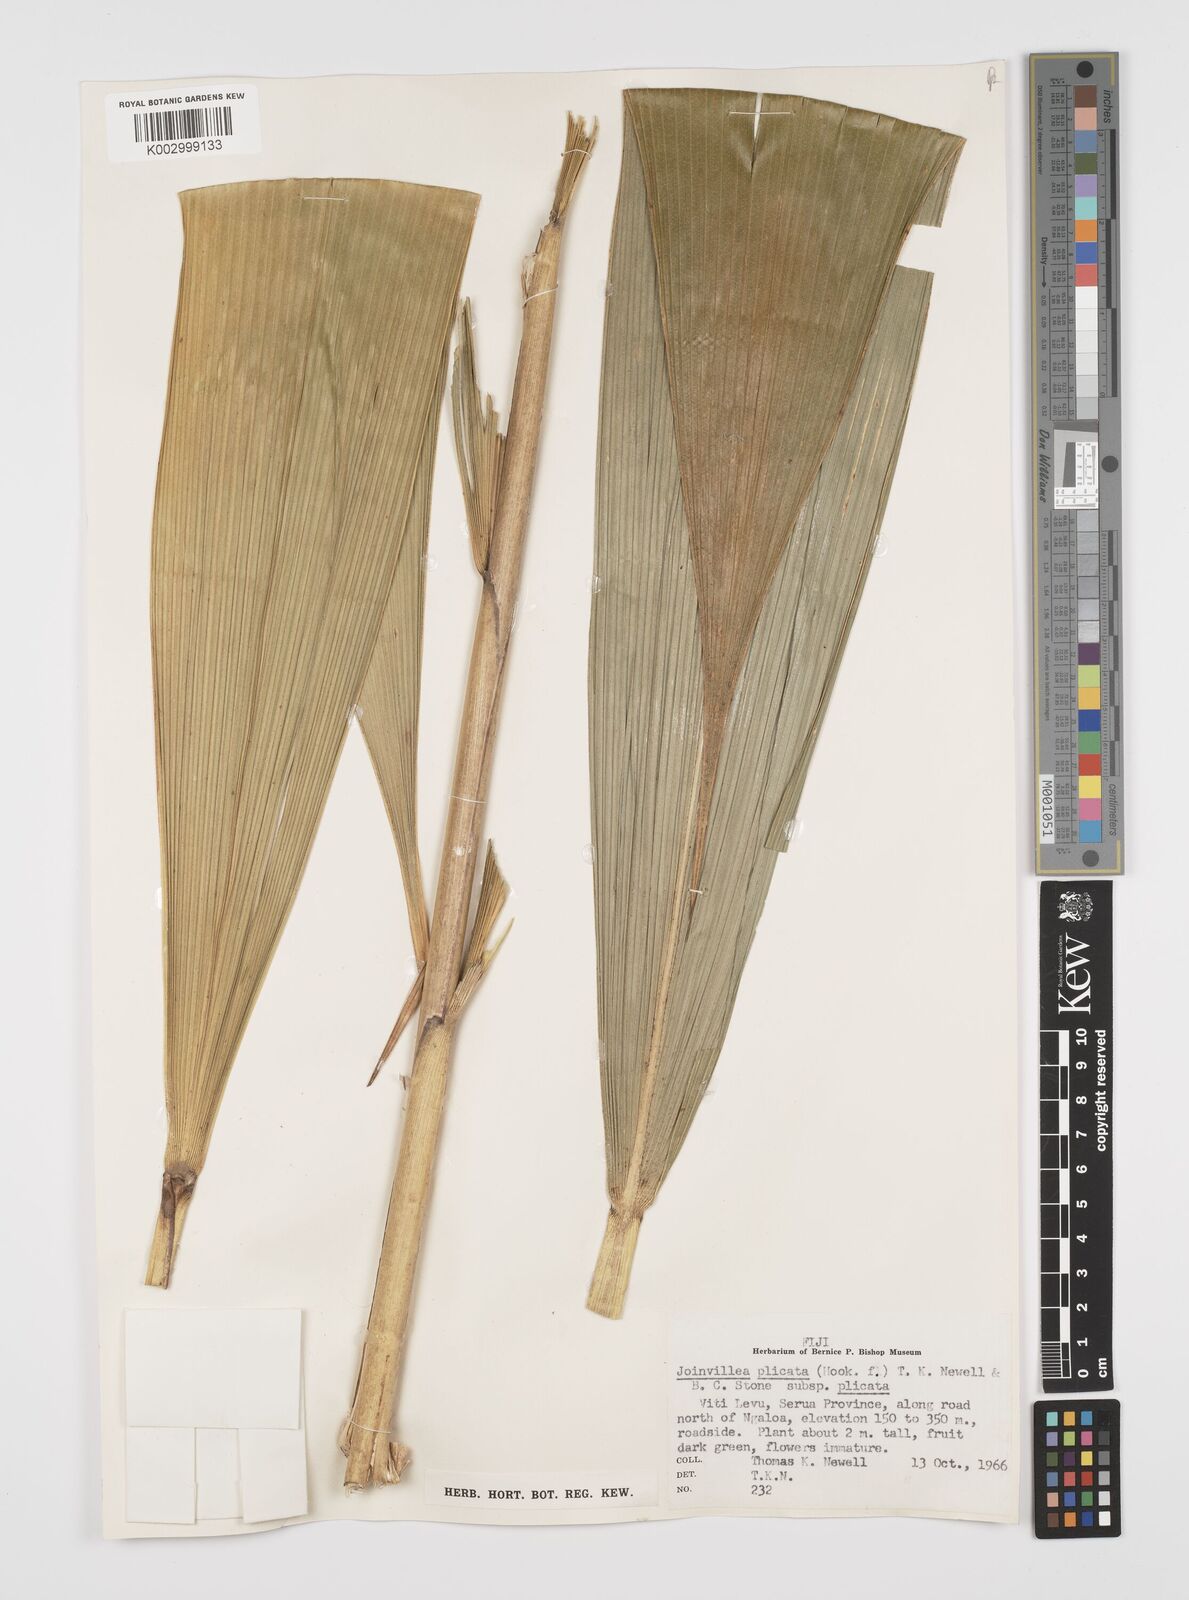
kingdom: Plantae
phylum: Tracheophyta
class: Liliopsida
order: Poales
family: Joinvilleaceae
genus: Joinvillea
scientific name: Joinvillea plicata
